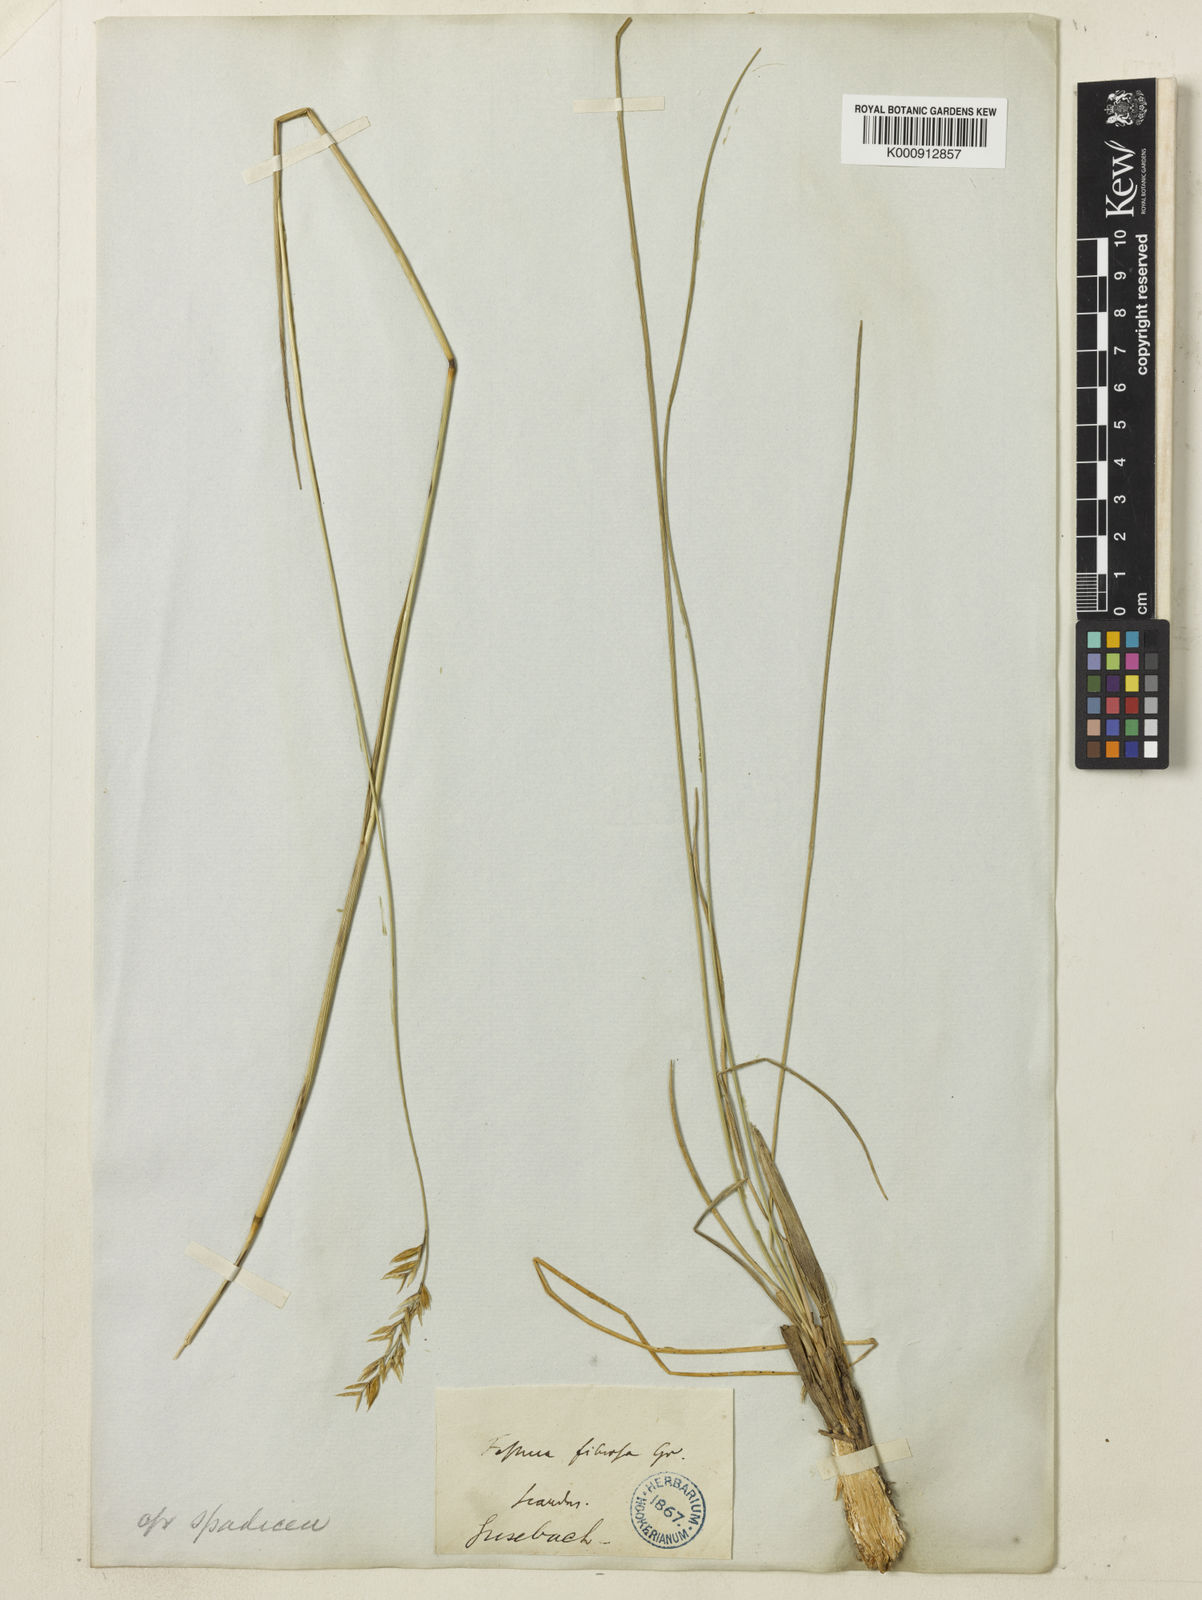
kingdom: Plantae
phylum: Tracheophyta
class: Liliopsida
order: Poales
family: Poaceae
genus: Festuca
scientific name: Festuca
